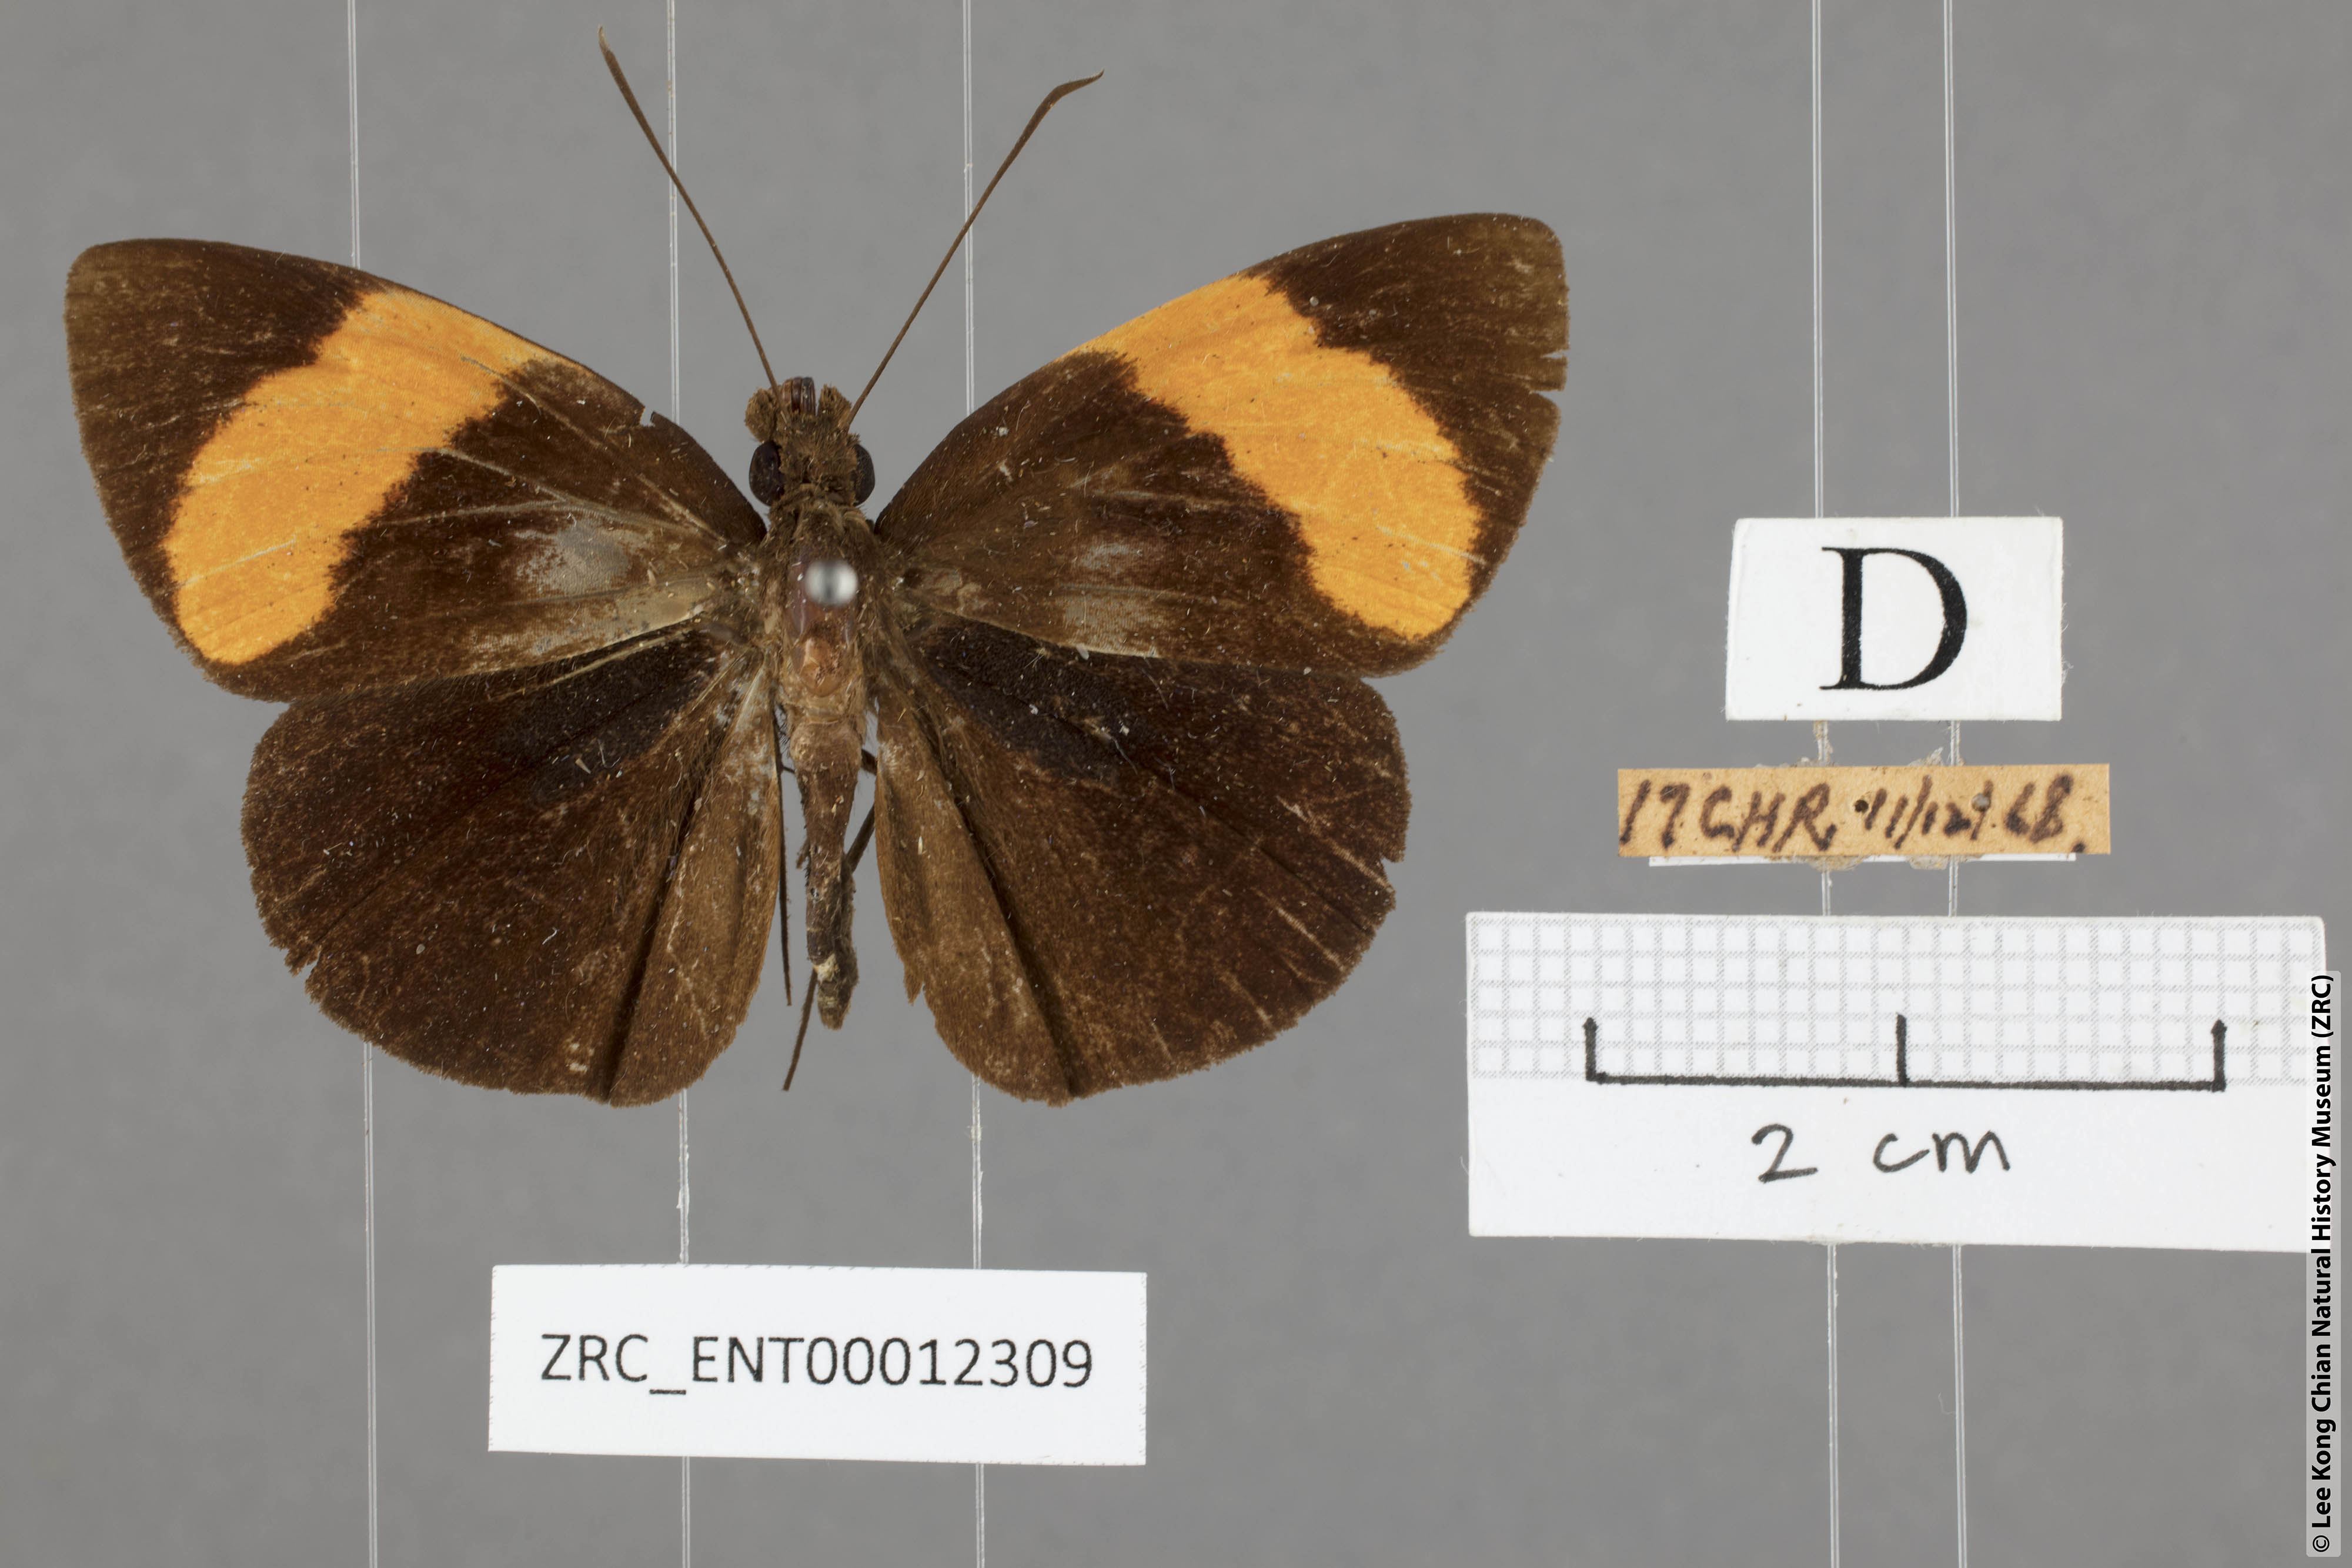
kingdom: Animalia
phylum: Arthropoda
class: Insecta
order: Lepidoptera
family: Hesperiidae
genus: Ancistroides
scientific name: Ancistroides armatus
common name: Red demon
